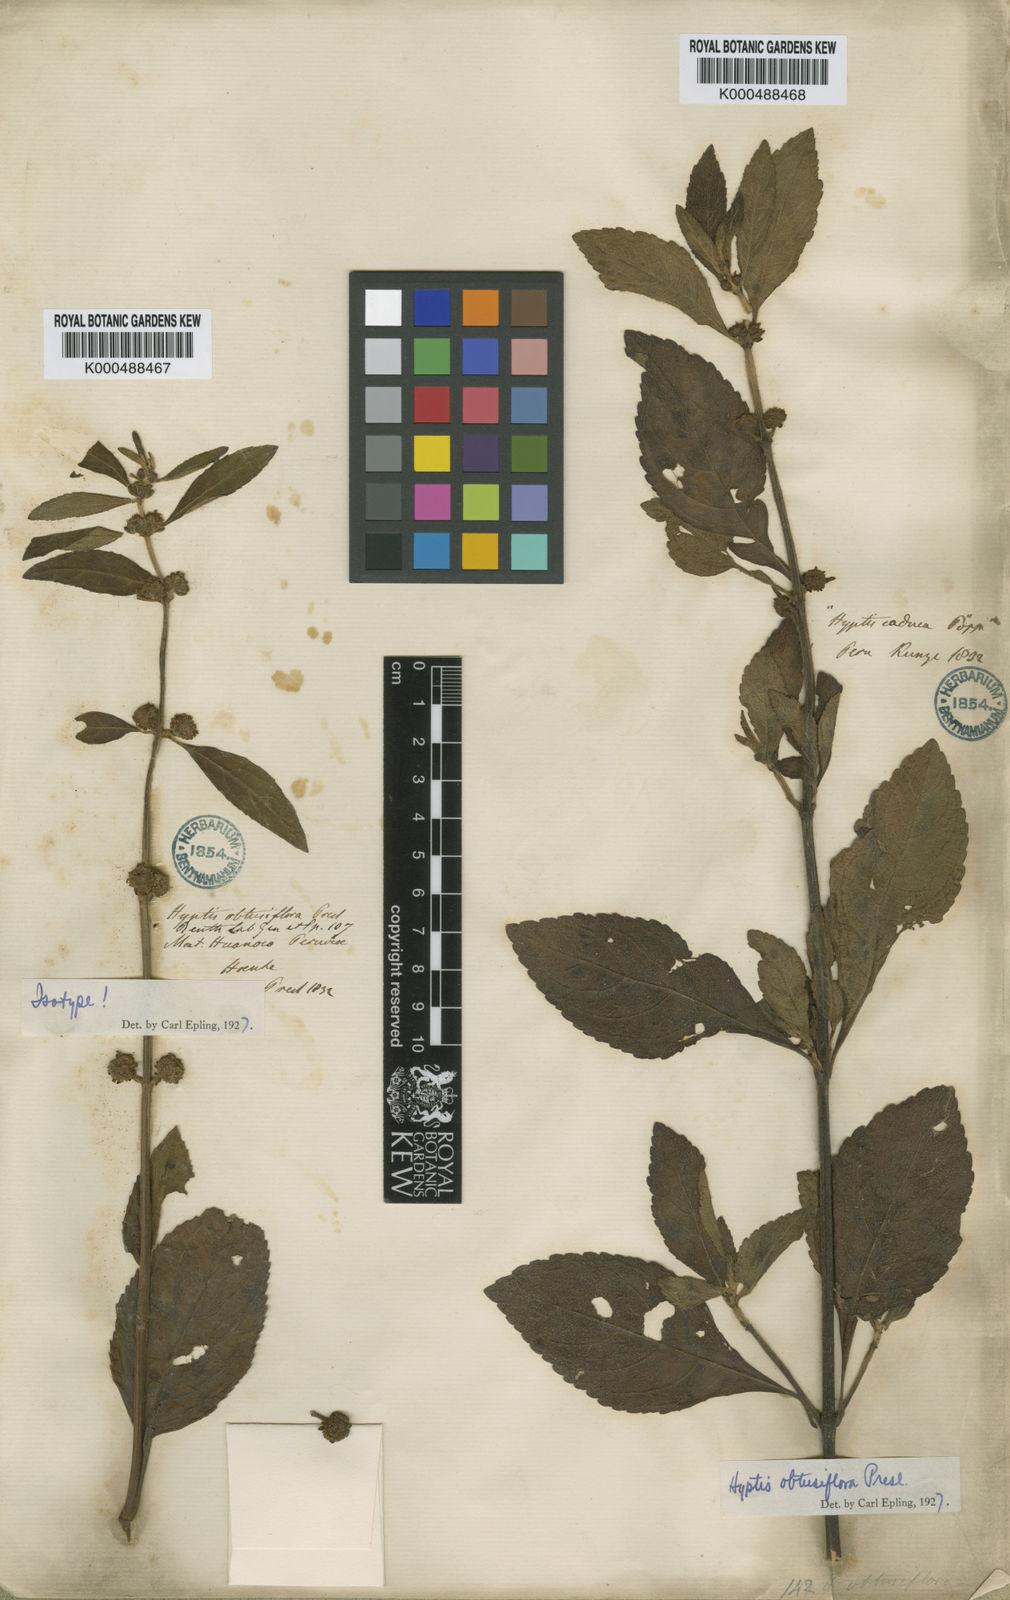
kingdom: Plantae
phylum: Tracheophyta
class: Magnoliopsida
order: Lamiales
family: Lamiaceae
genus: Hyptis
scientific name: Hyptis obtusiflora
